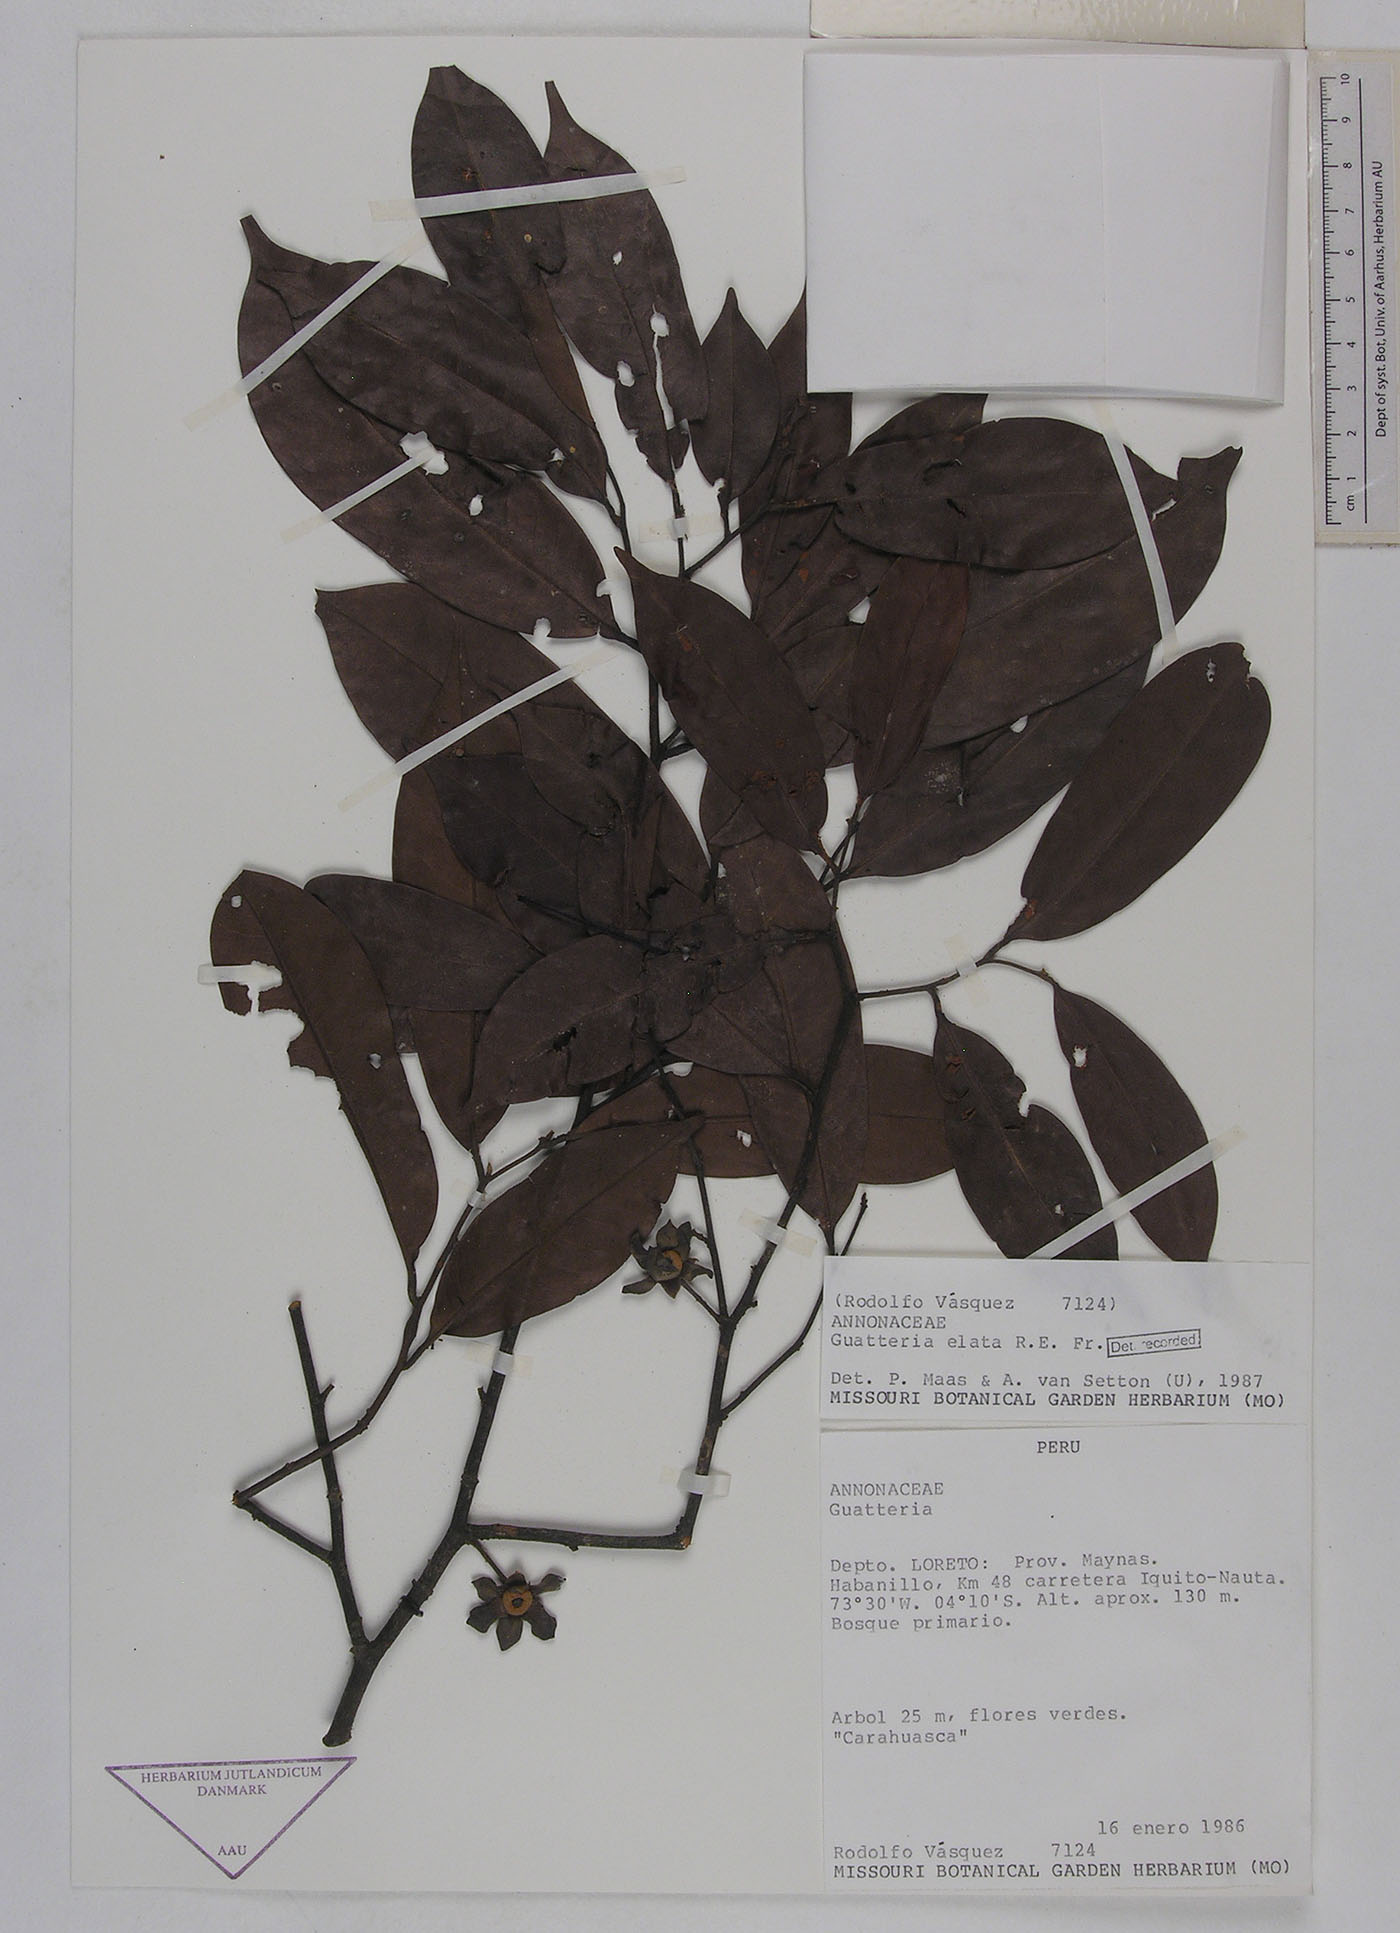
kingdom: Plantae
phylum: Tracheophyta
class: Magnoliopsida
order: Magnoliales
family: Annonaceae
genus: Guatteria
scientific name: Guatteria elata
